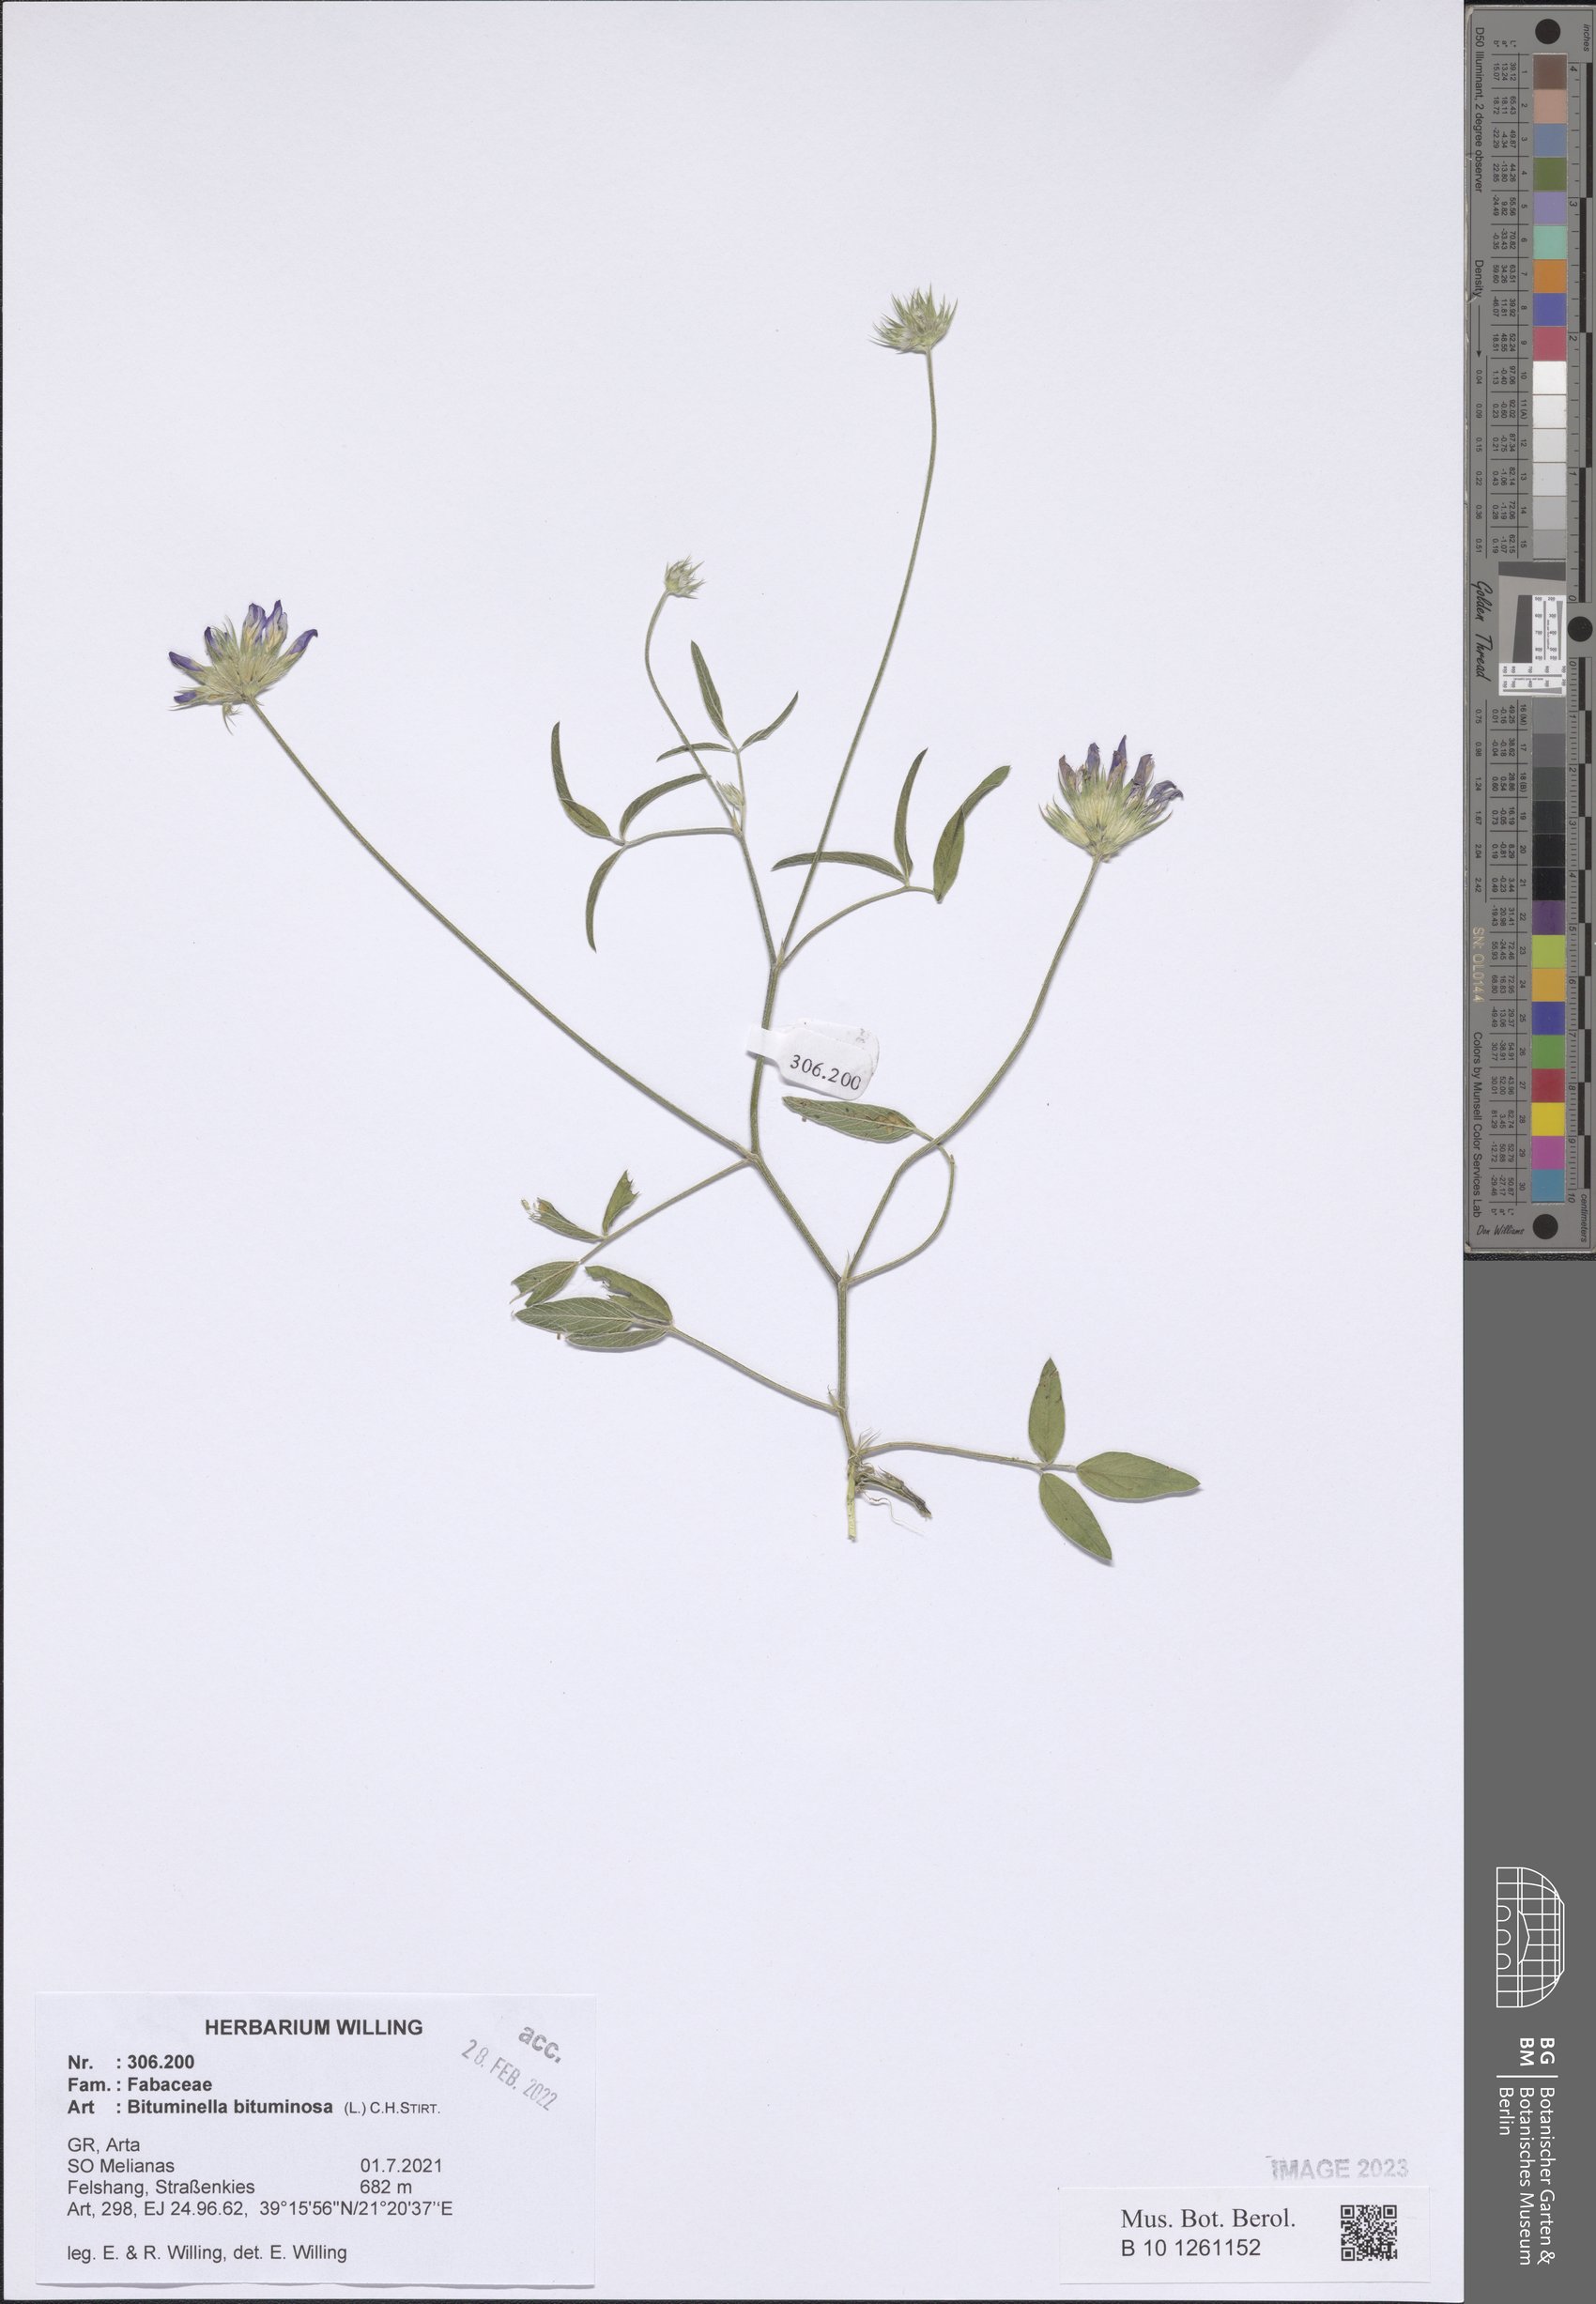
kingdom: Plantae
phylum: Tracheophyta
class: Magnoliopsida
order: Fabales
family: Fabaceae
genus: Bituminaria
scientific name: Bituminaria bituminosa
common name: Arabian pea
